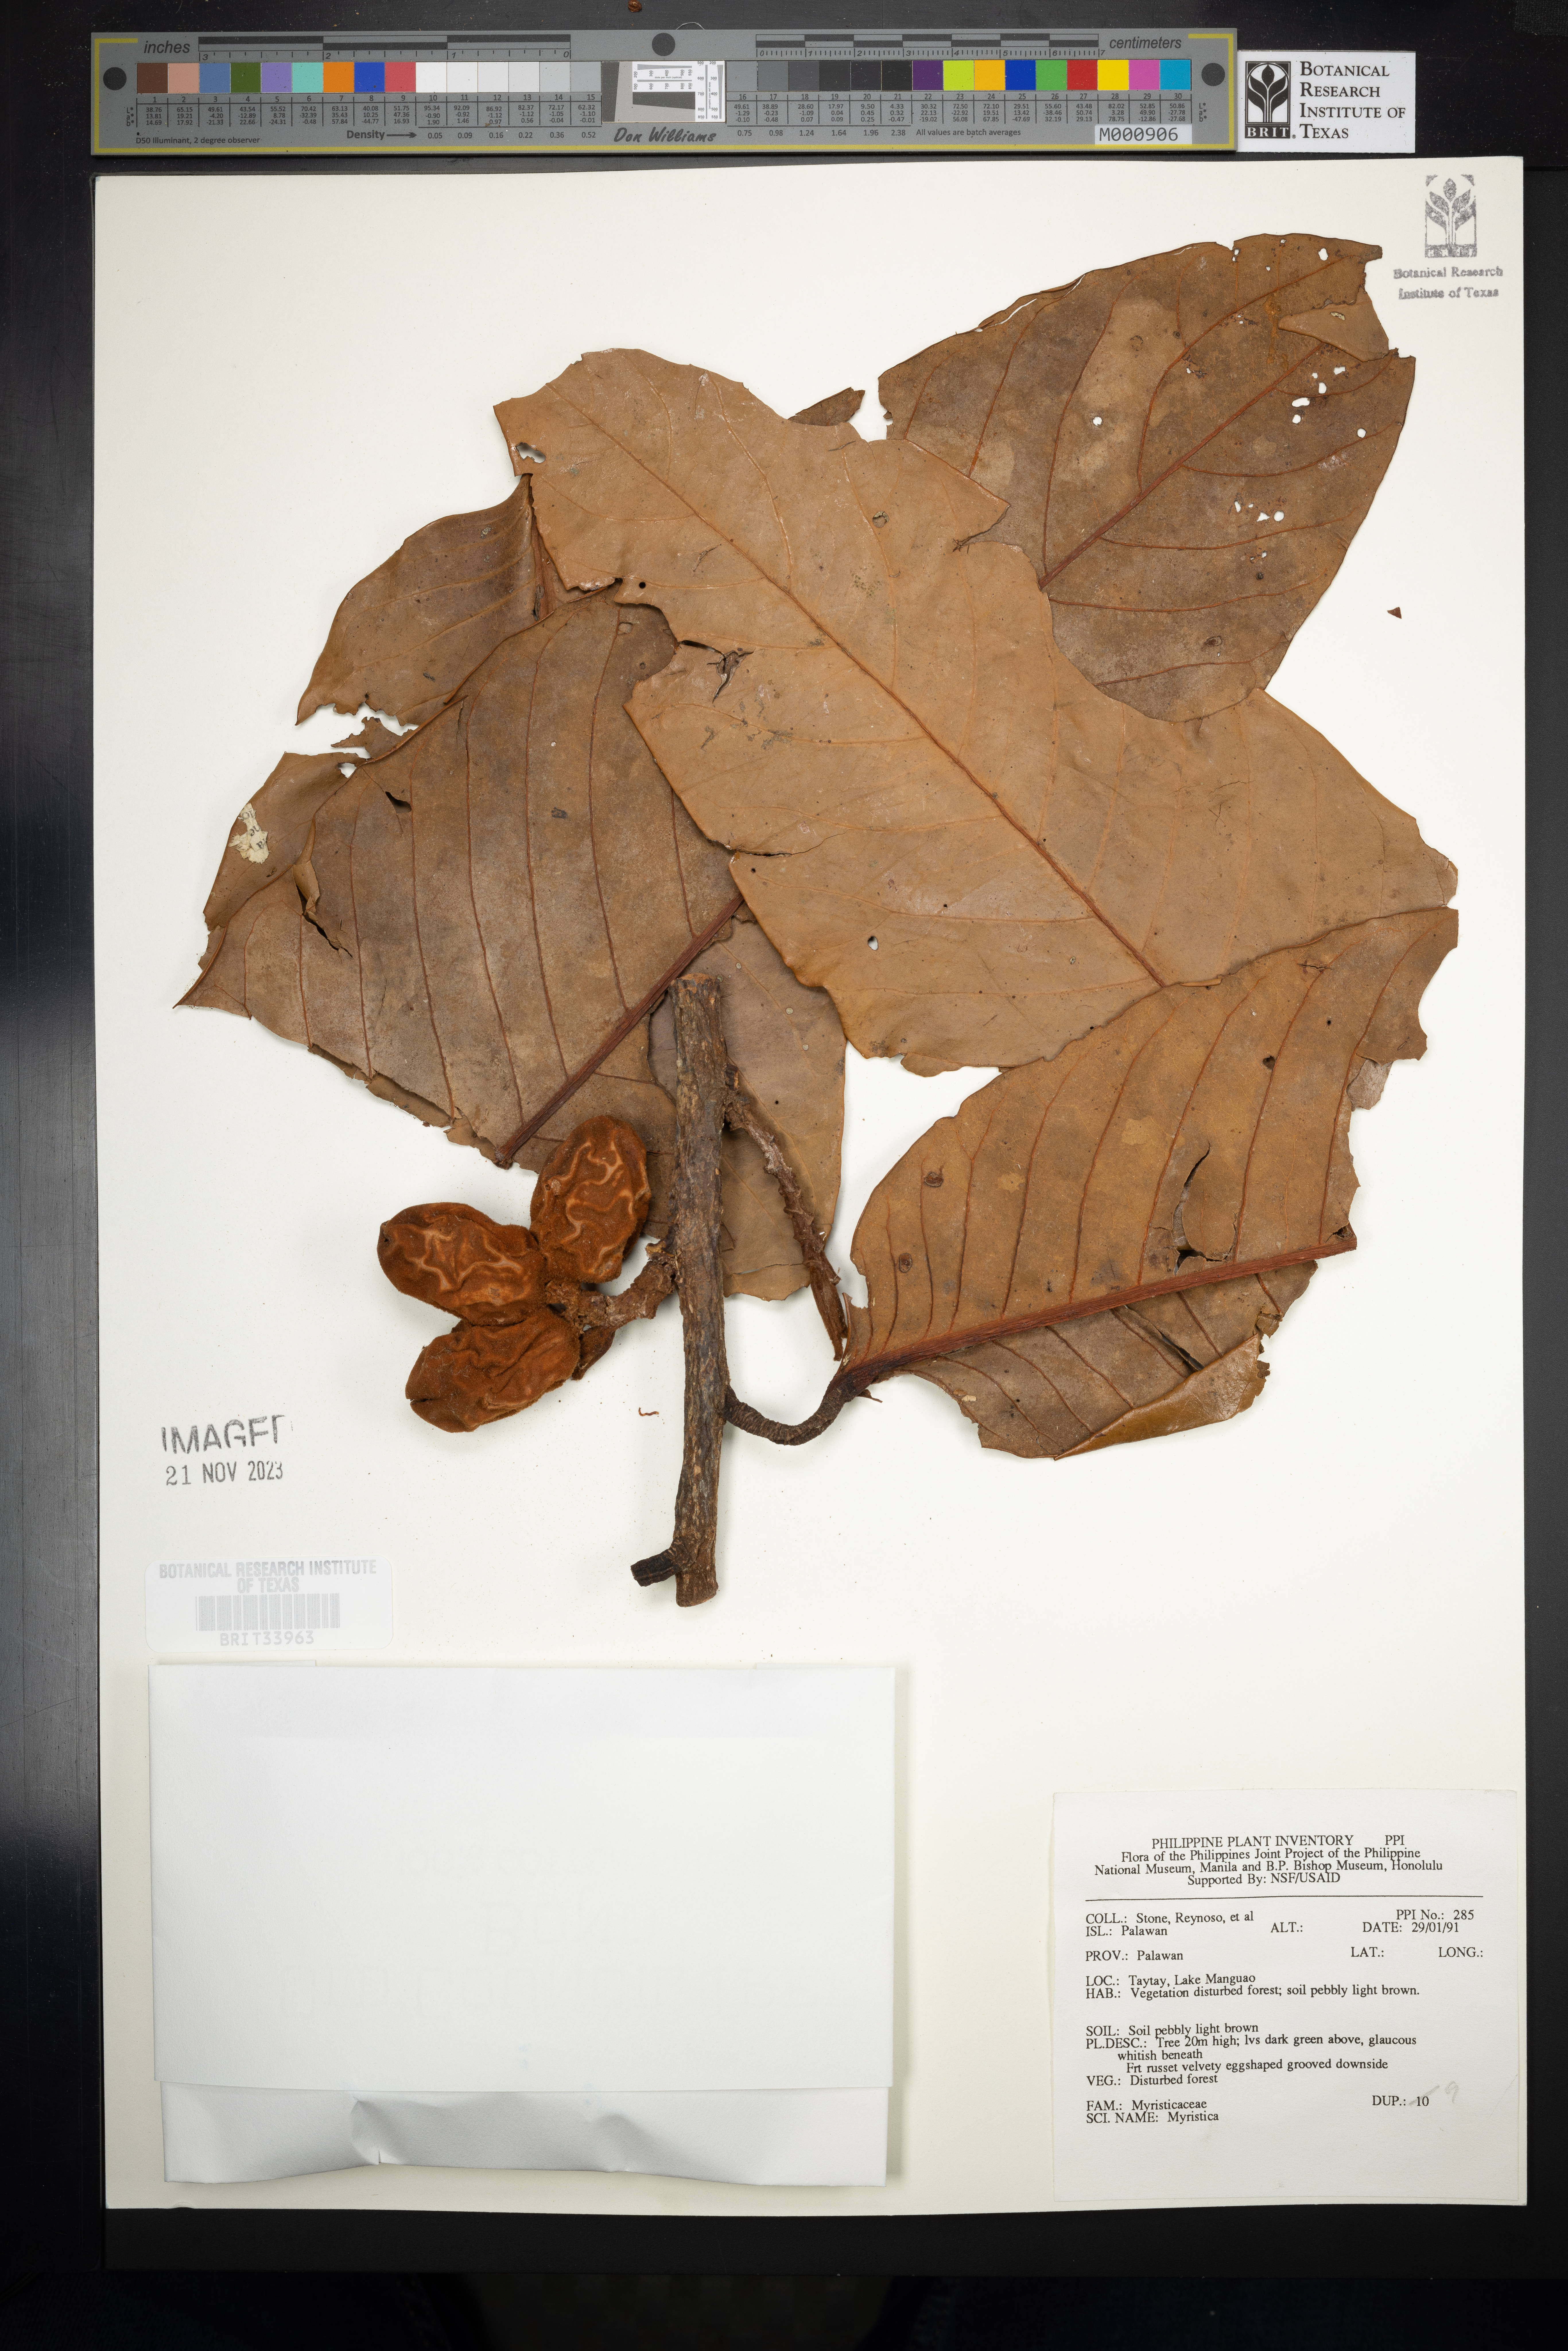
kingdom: Plantae
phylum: Tracheophyta
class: Magnoliopsida
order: Magnoliales
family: Myristicaceae
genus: Myristica
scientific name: Myristica
